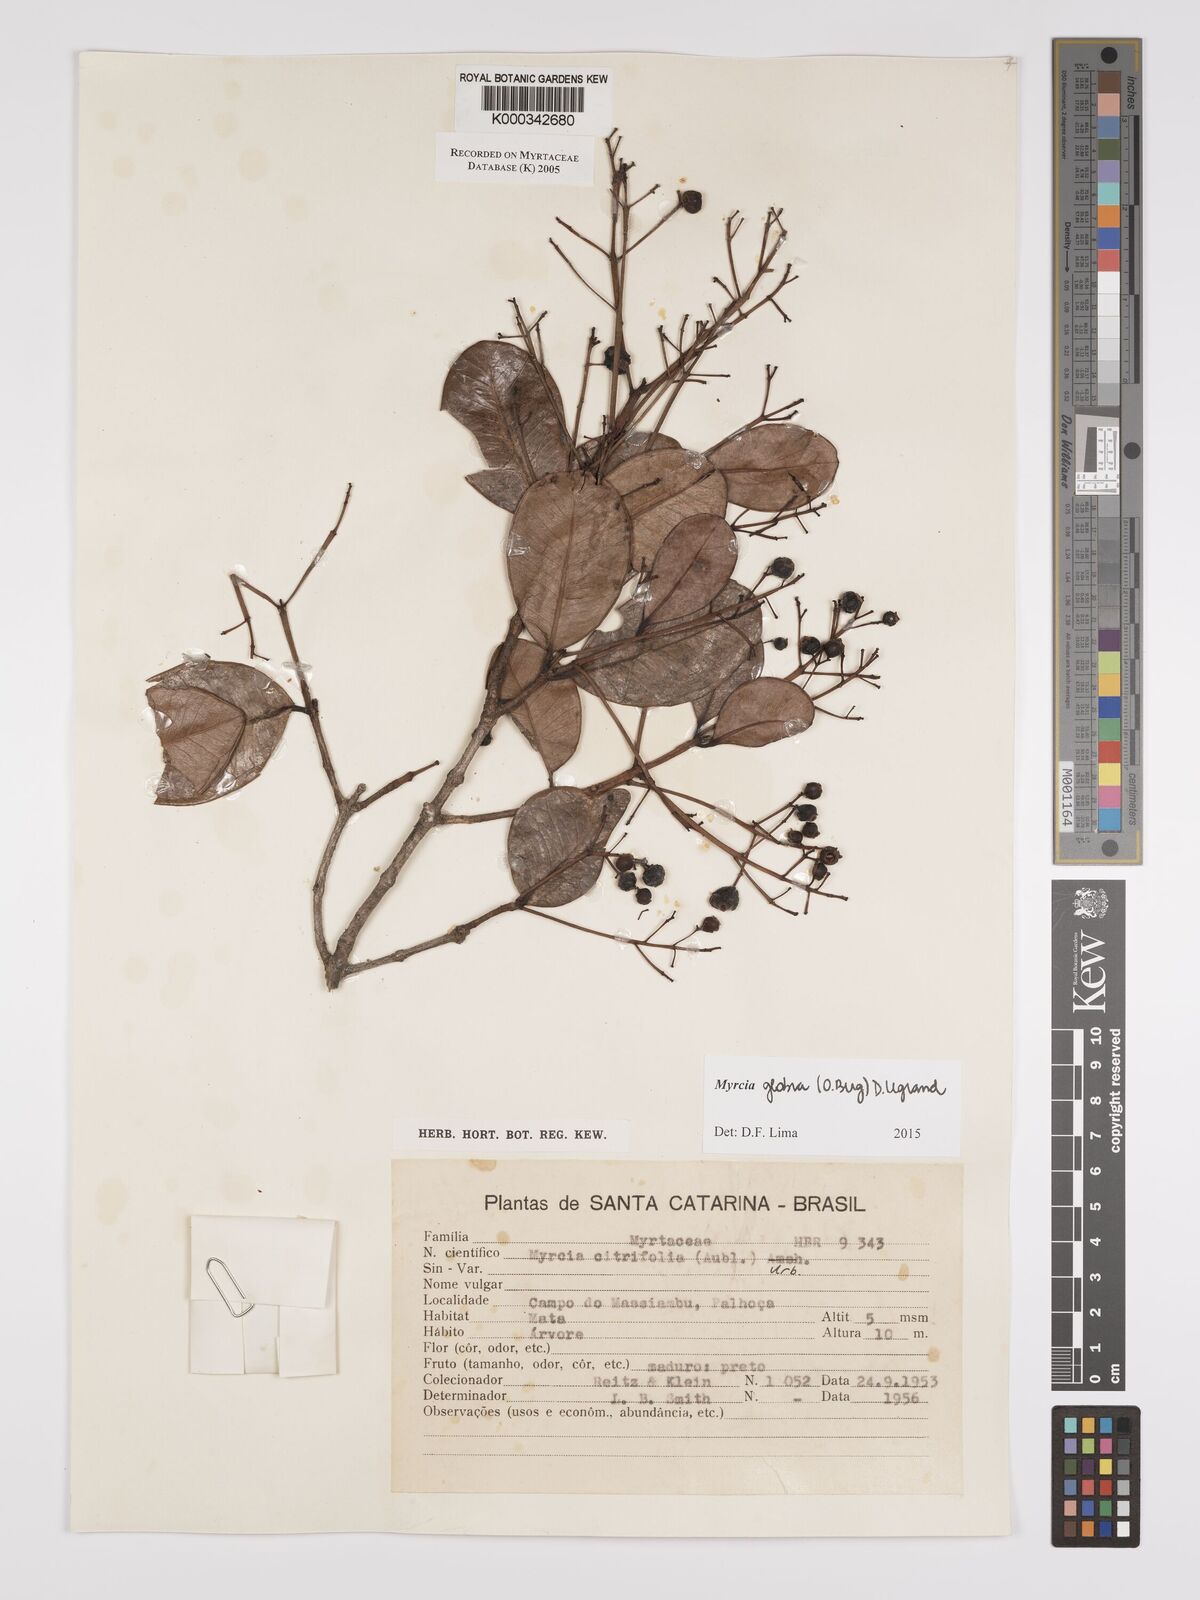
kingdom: Plantae
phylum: Tracheophyta
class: Magnoliopsida
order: Myrtales
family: Myrtaceae
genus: Myrcia
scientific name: Myrcia guianensis
